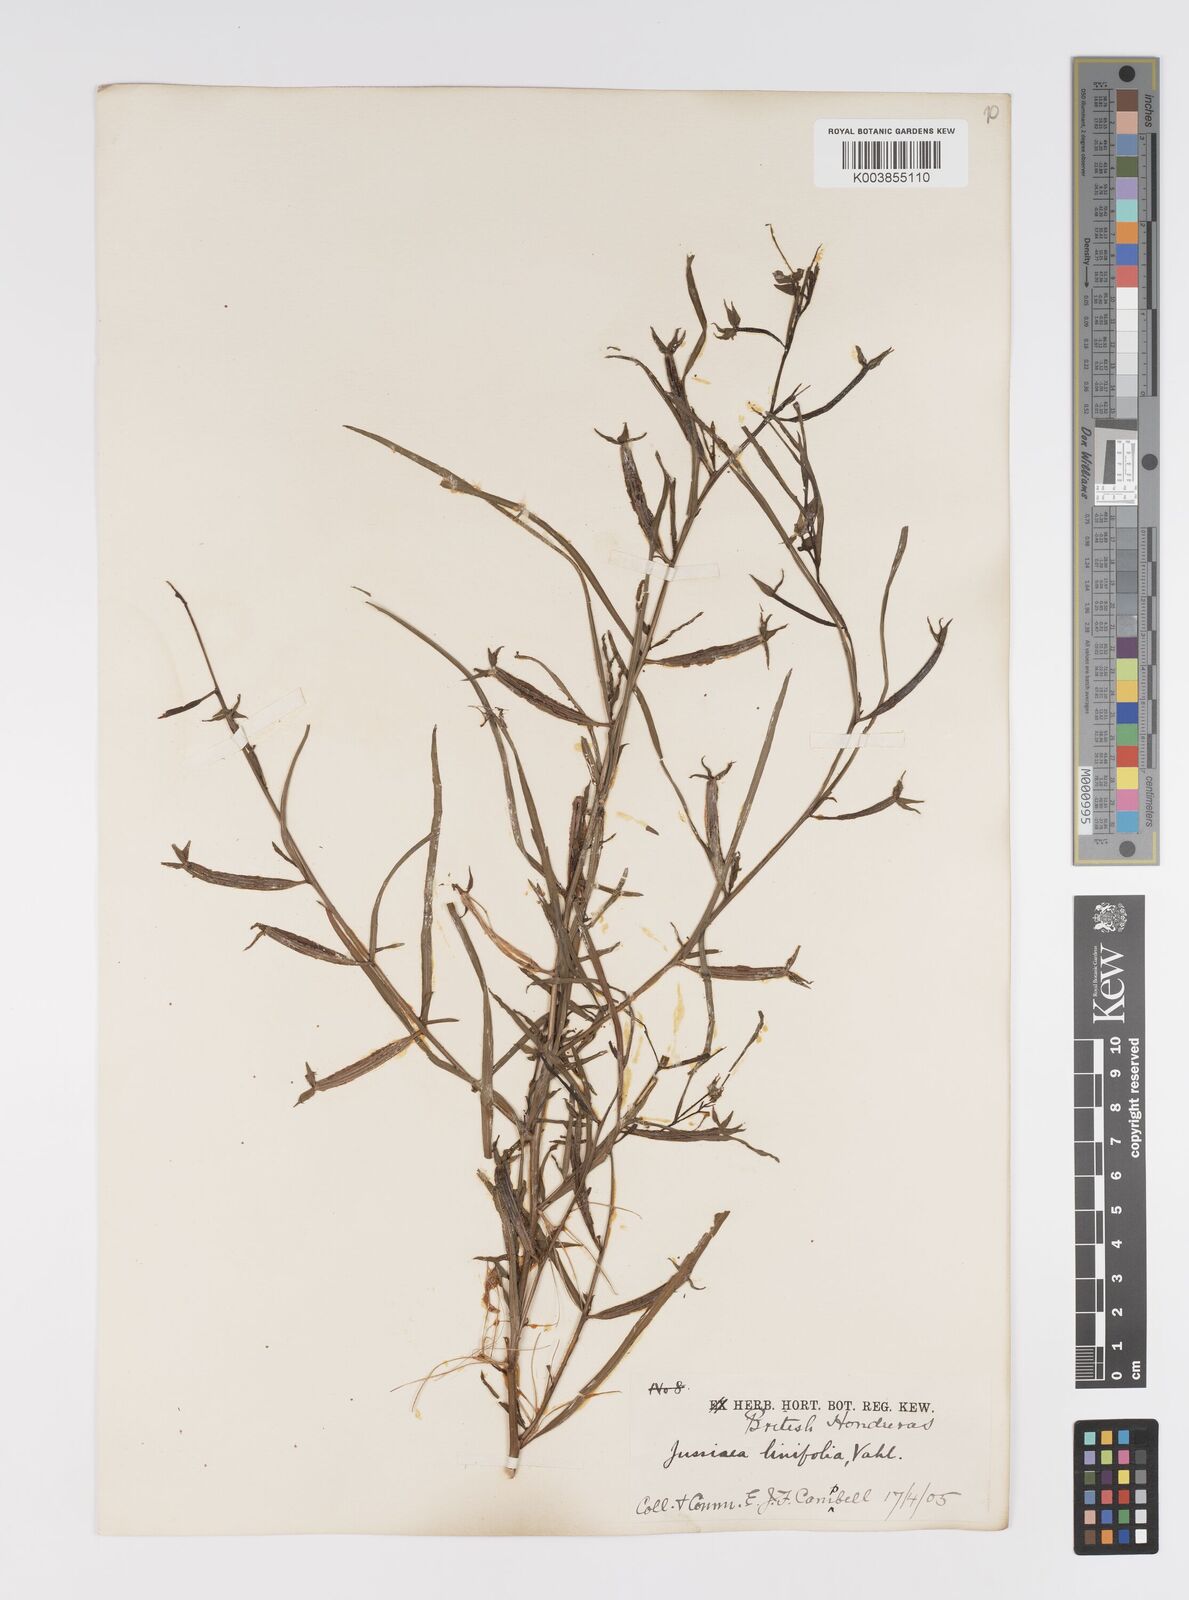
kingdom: Plantae
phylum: Tracheophyta
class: Magnoliopsida
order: Myrtales
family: Onagraceae
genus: Ludwigia
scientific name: Ludwigia octovalvis
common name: Water-primrose
